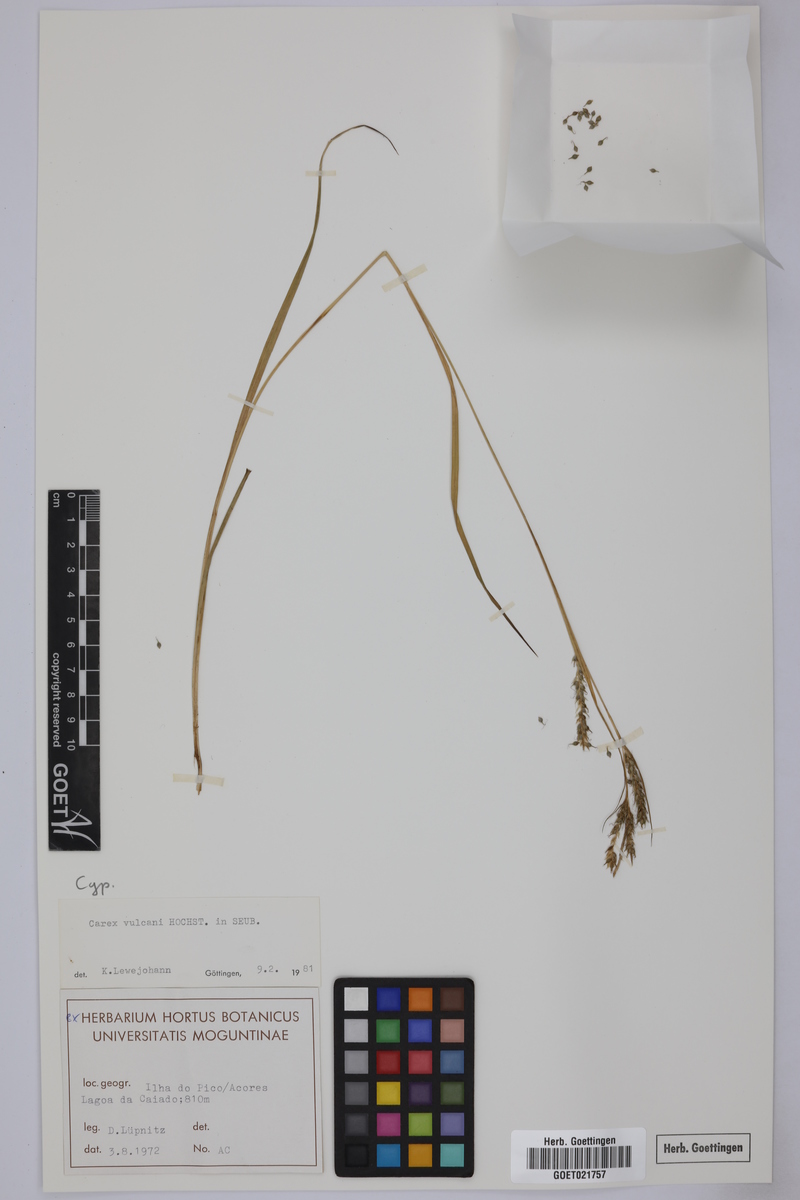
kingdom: Plantae
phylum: Tracheophyta
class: Liliopsida
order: Poales
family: Cyperaceae
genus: Carex
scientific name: Carex vulcani
